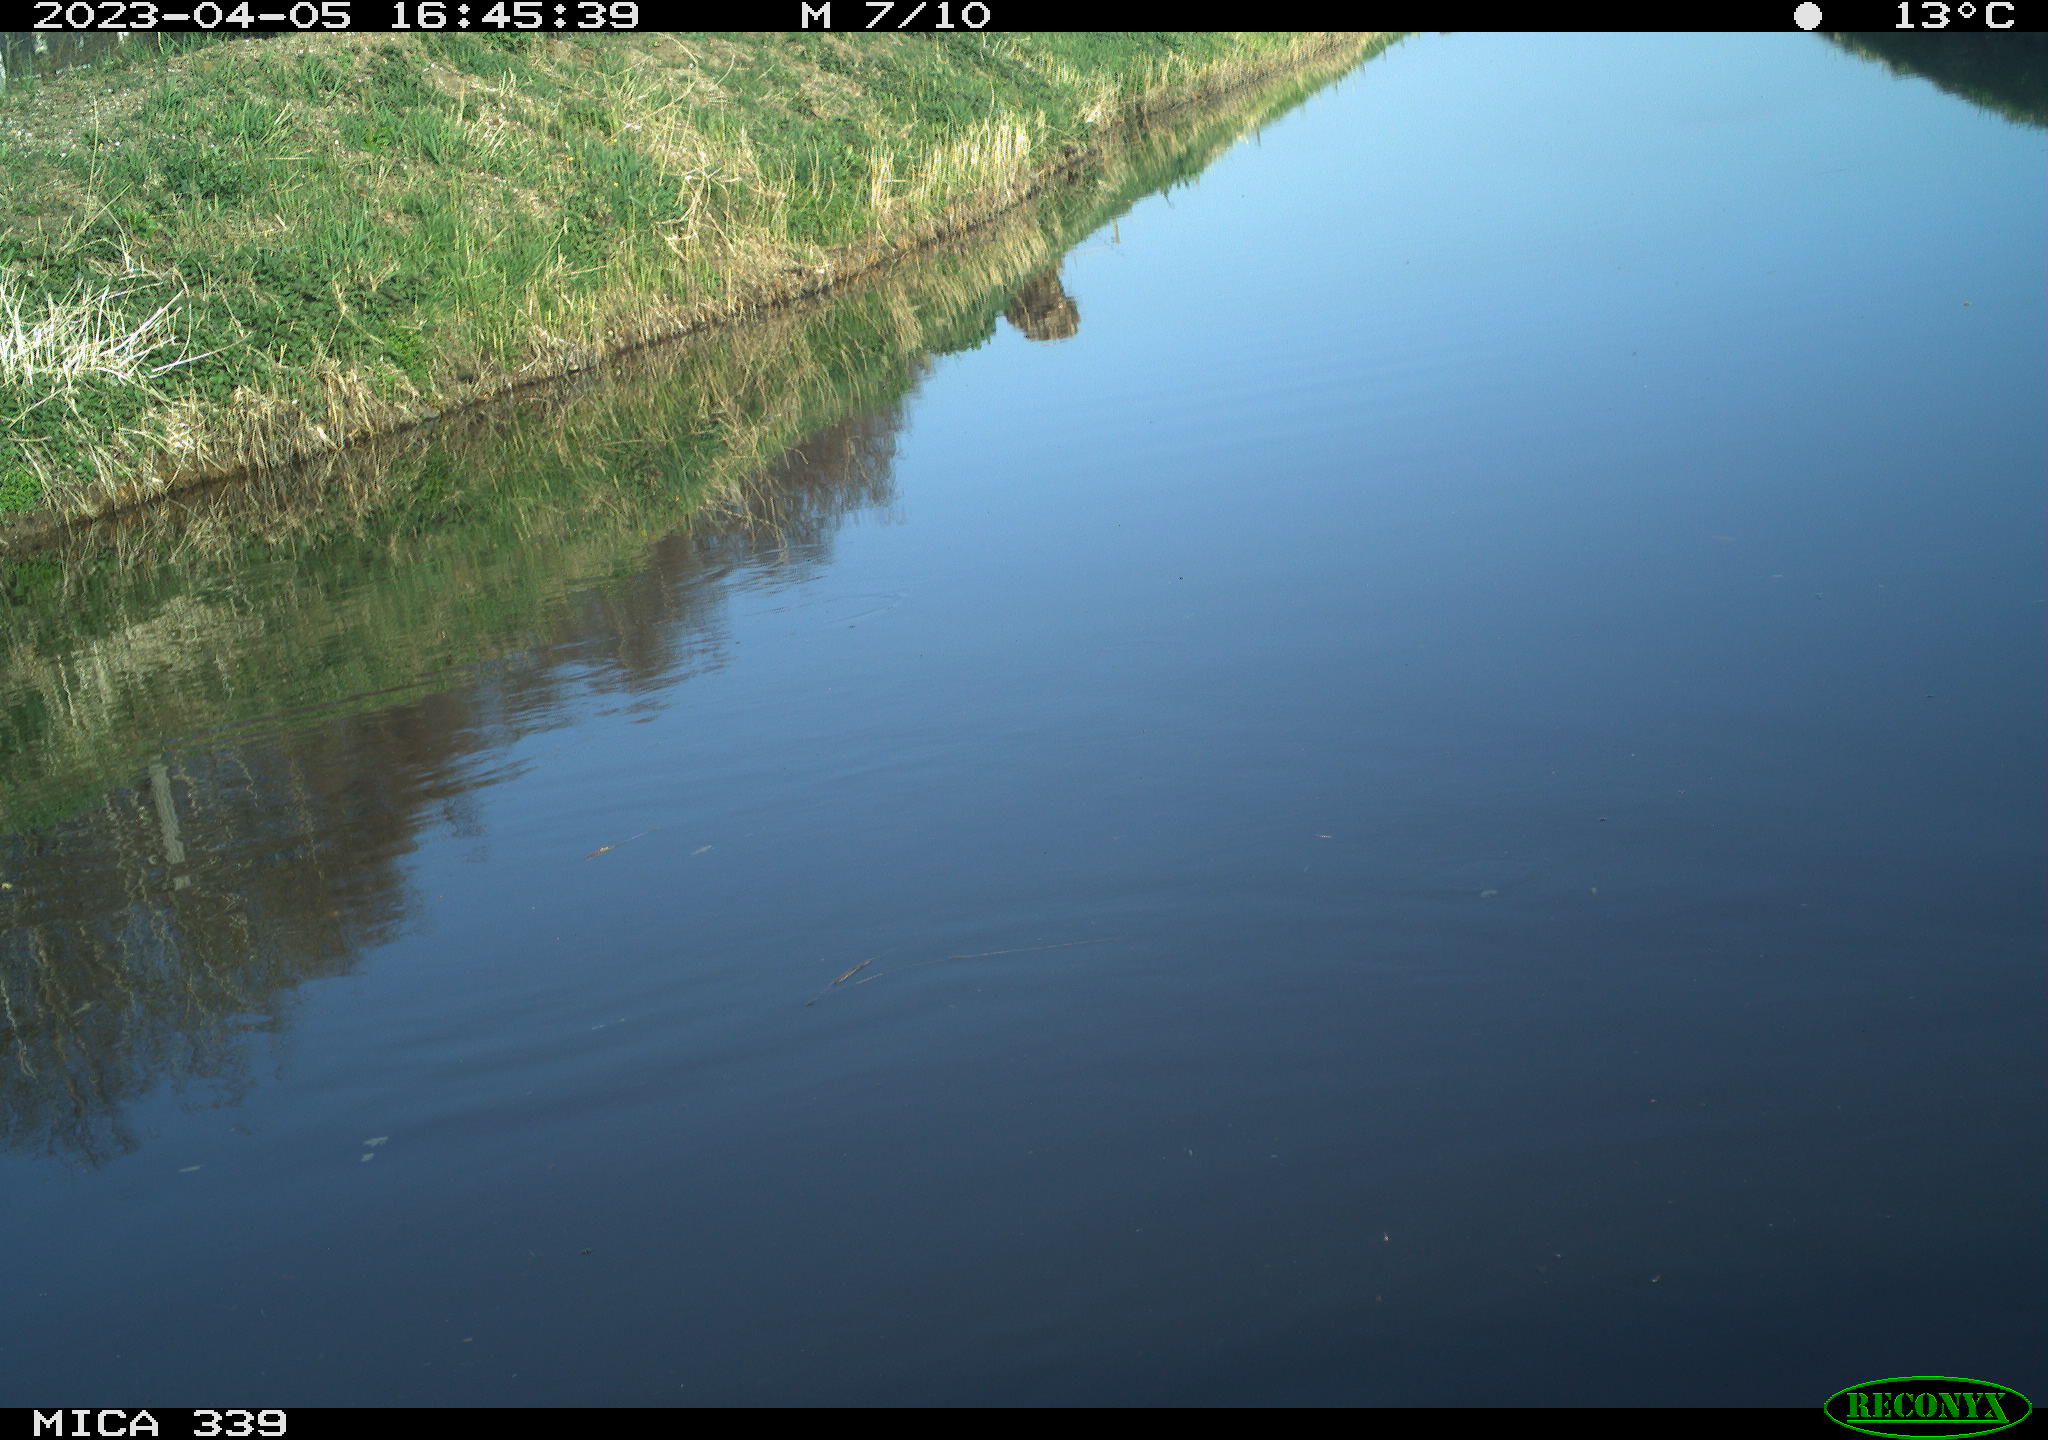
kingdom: Animalia
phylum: Chordata
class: Aves
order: Pelecaniformes
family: Ardeidae
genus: Ardea
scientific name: Ardea
